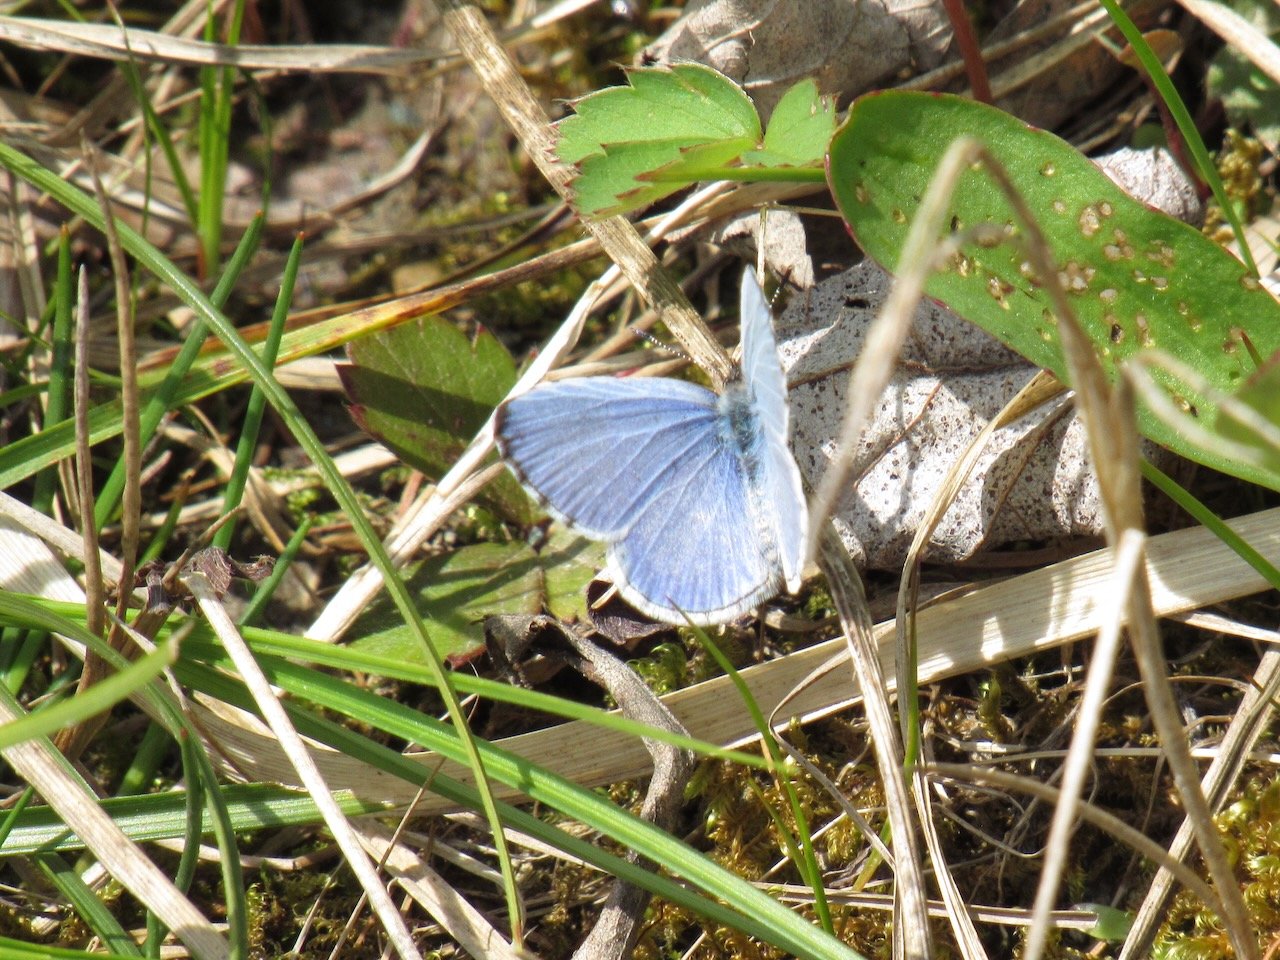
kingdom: Animalia
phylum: Arthropoda
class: Insecta
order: Lepidoptera
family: Lycaenidae
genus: Celastrina
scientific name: Celastrina lucia
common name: Northern Spring Azure
